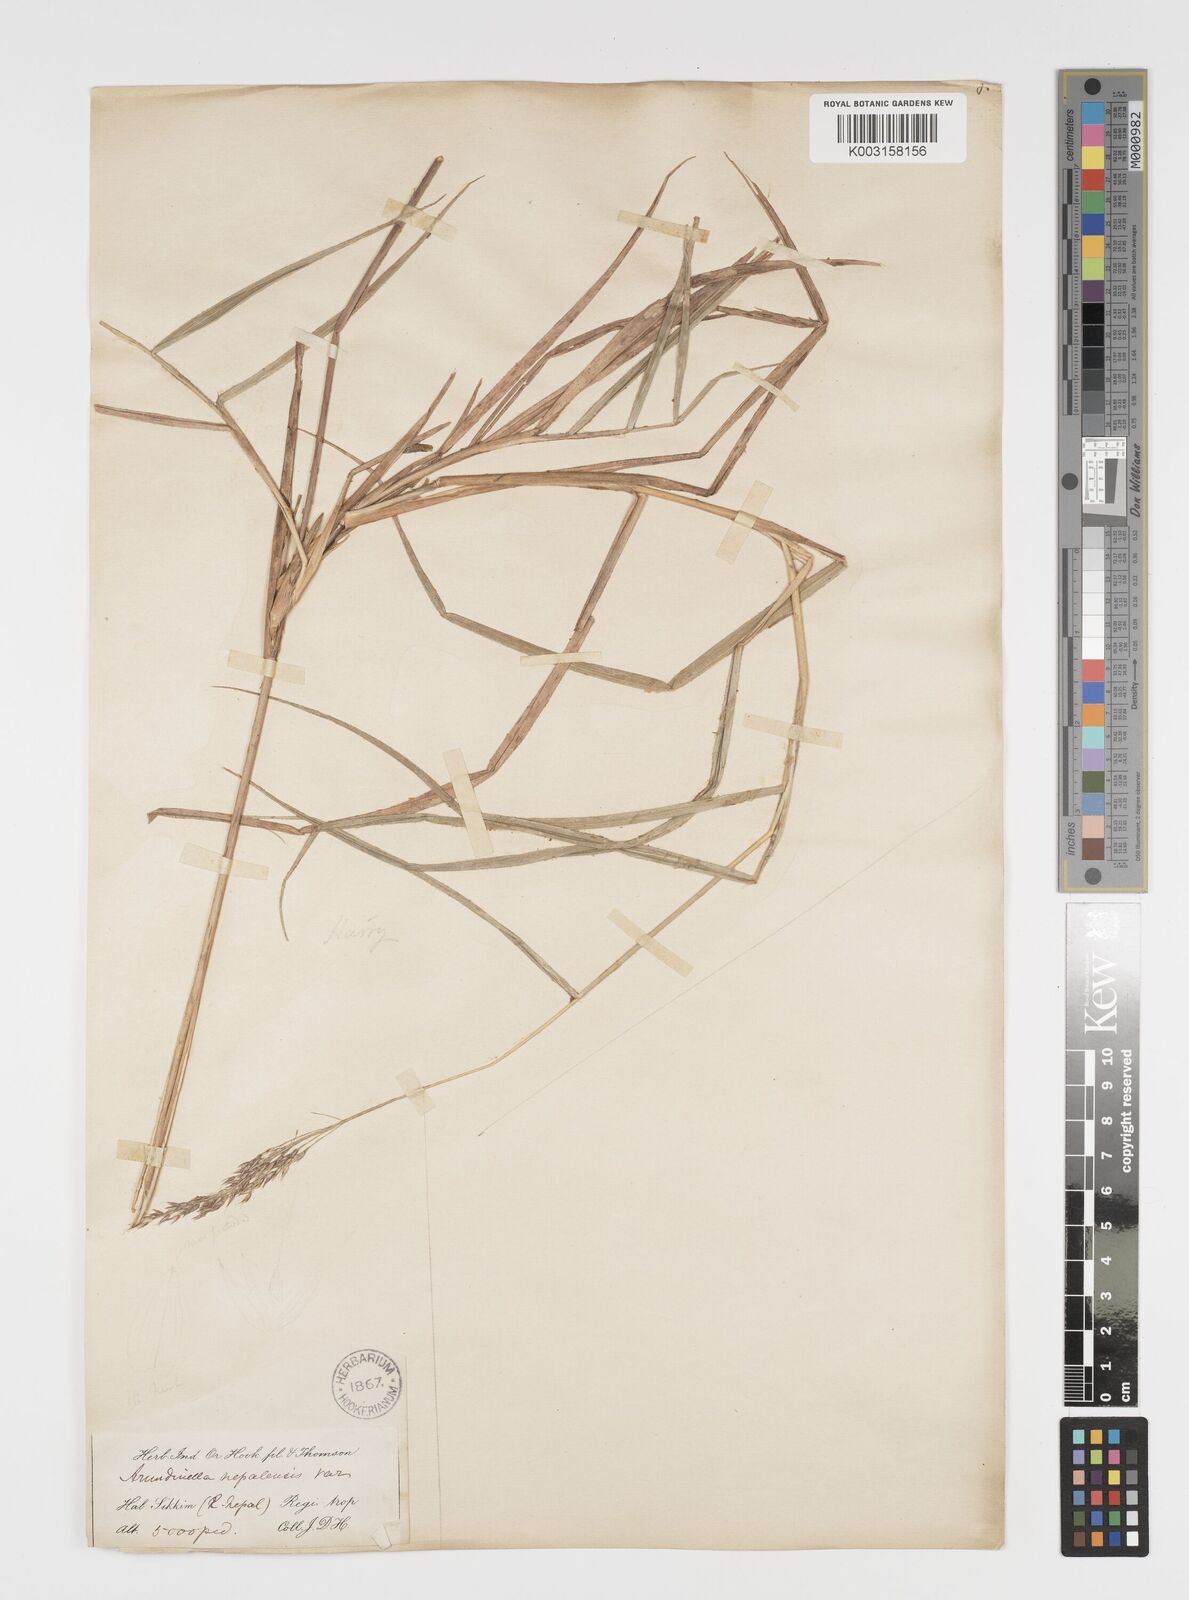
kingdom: Plantae
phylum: Tracheophyta
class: Liliopsida
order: Poales
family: Poaceae
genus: Arundinella
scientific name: Arundinella nepalensis
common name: Reed grass
